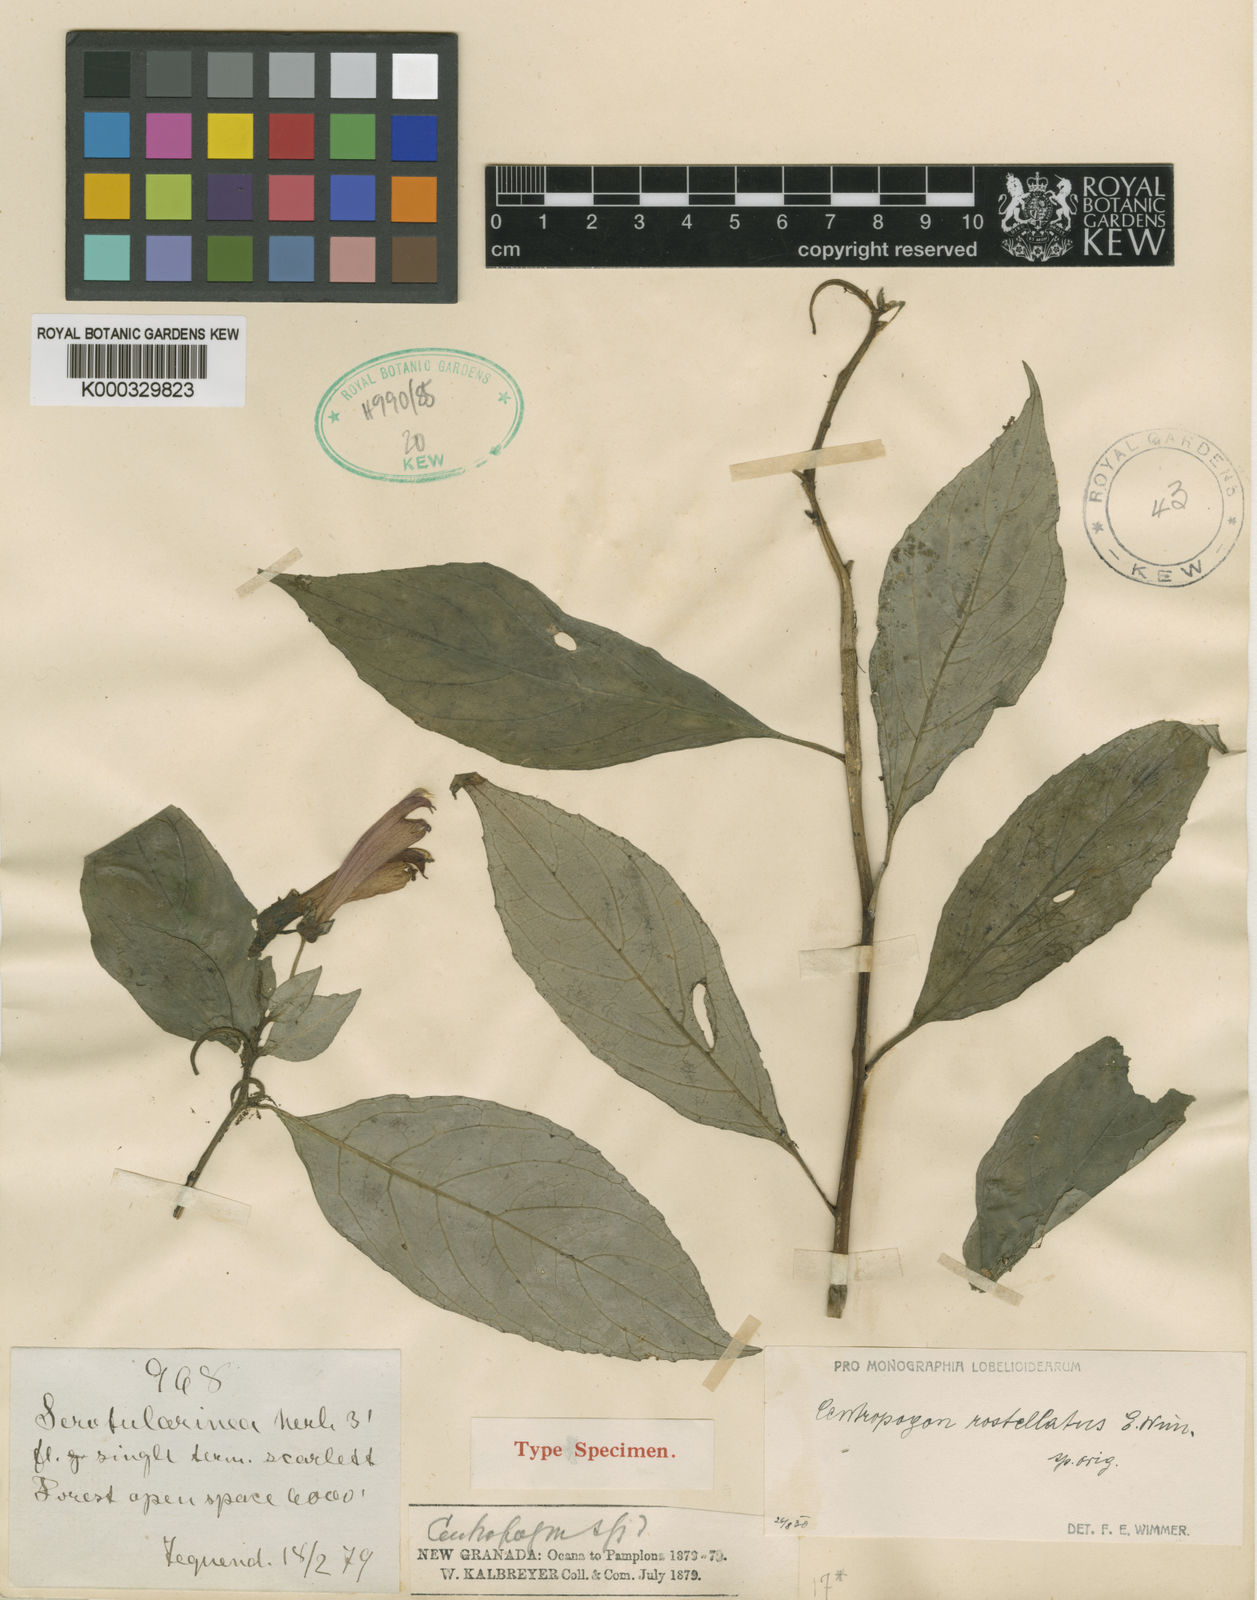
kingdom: Plantae
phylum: Tracheophyta
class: Magnoliopsida
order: Asterales
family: Campanulaceae
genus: Centropogon
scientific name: Centropogon grandis
